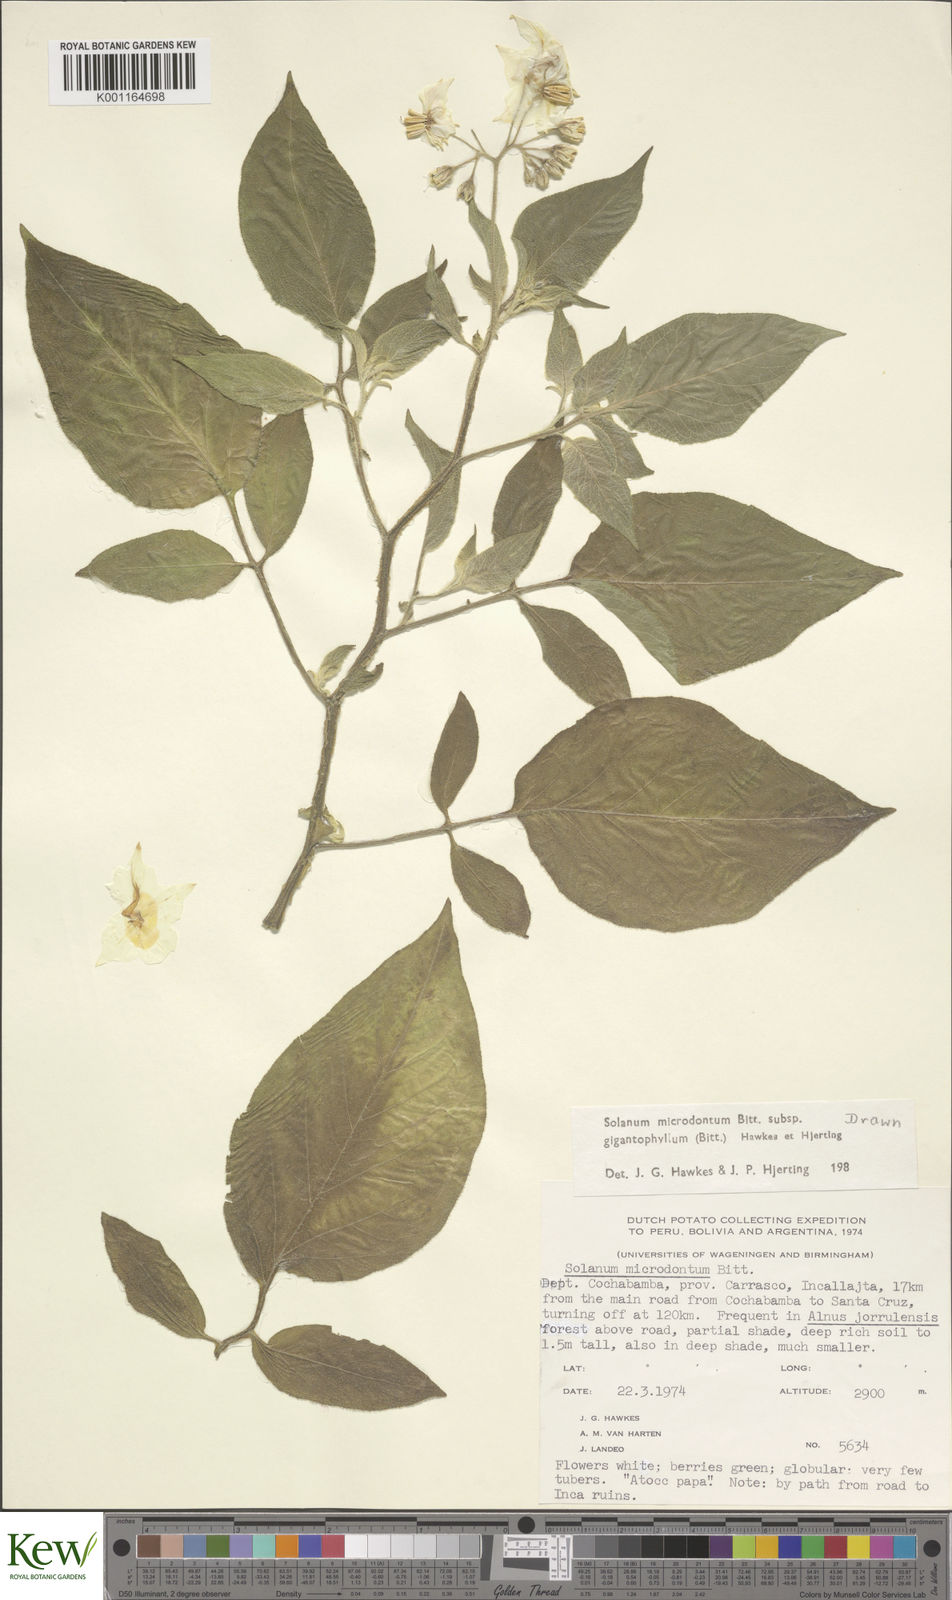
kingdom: Plantae
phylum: Tracheophyta
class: Magnoliopsida
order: Solanales
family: Solanaceae
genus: Solanum
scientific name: Solanum microdontum
